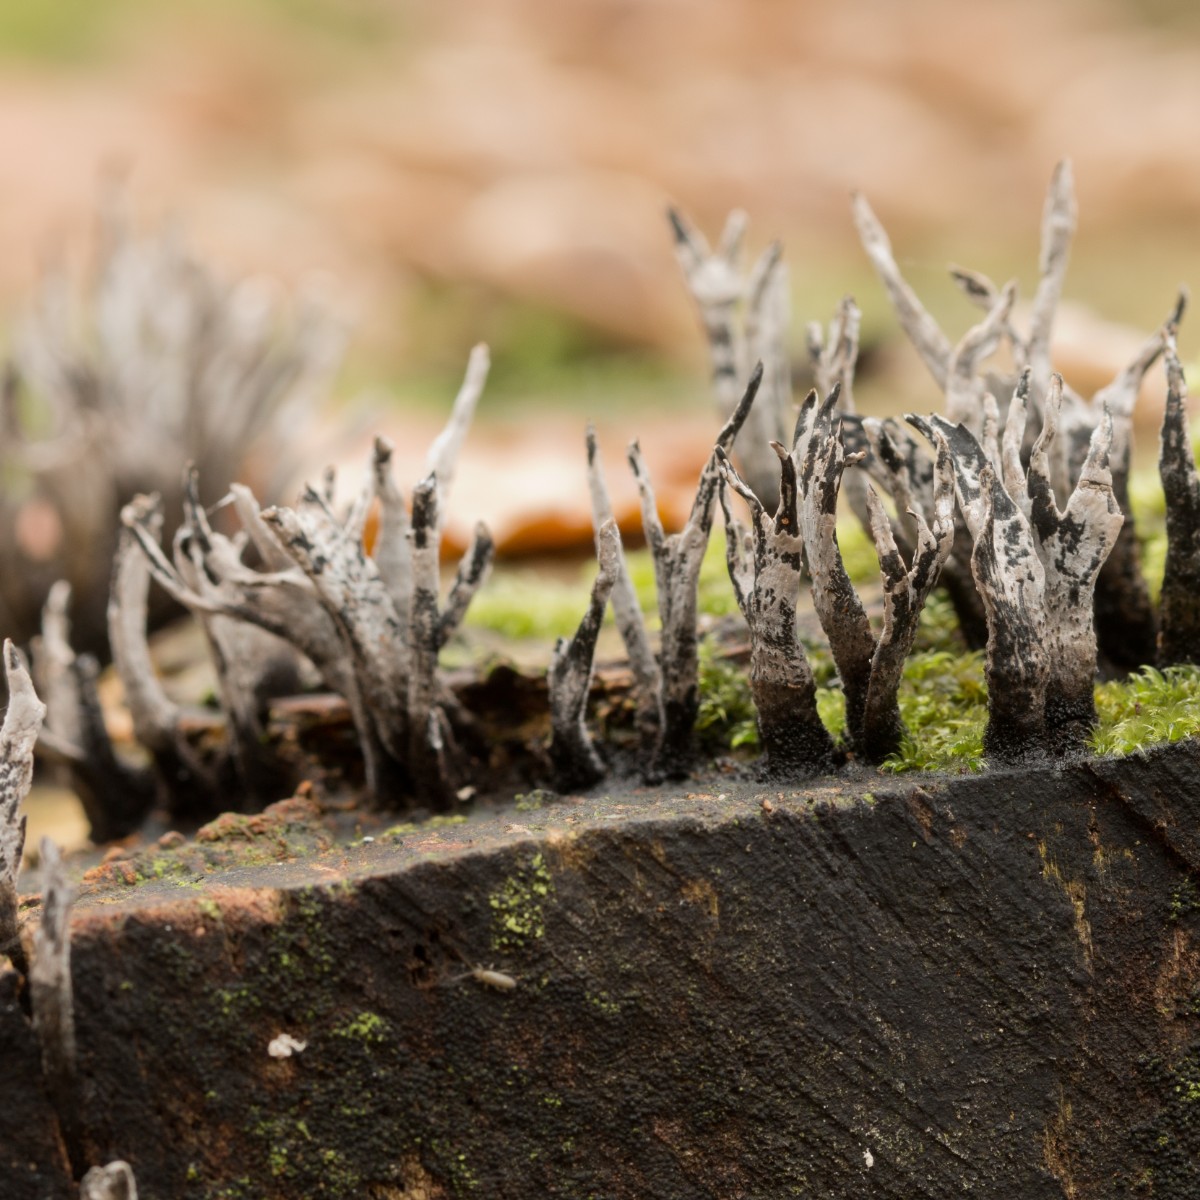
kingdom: Fungi
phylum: Ascomycota
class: Sordariomycetes
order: Xylariales
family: Xylariaceae
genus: Xylaria
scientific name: Xylaria hypoxylon
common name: grenet stødsvamp
